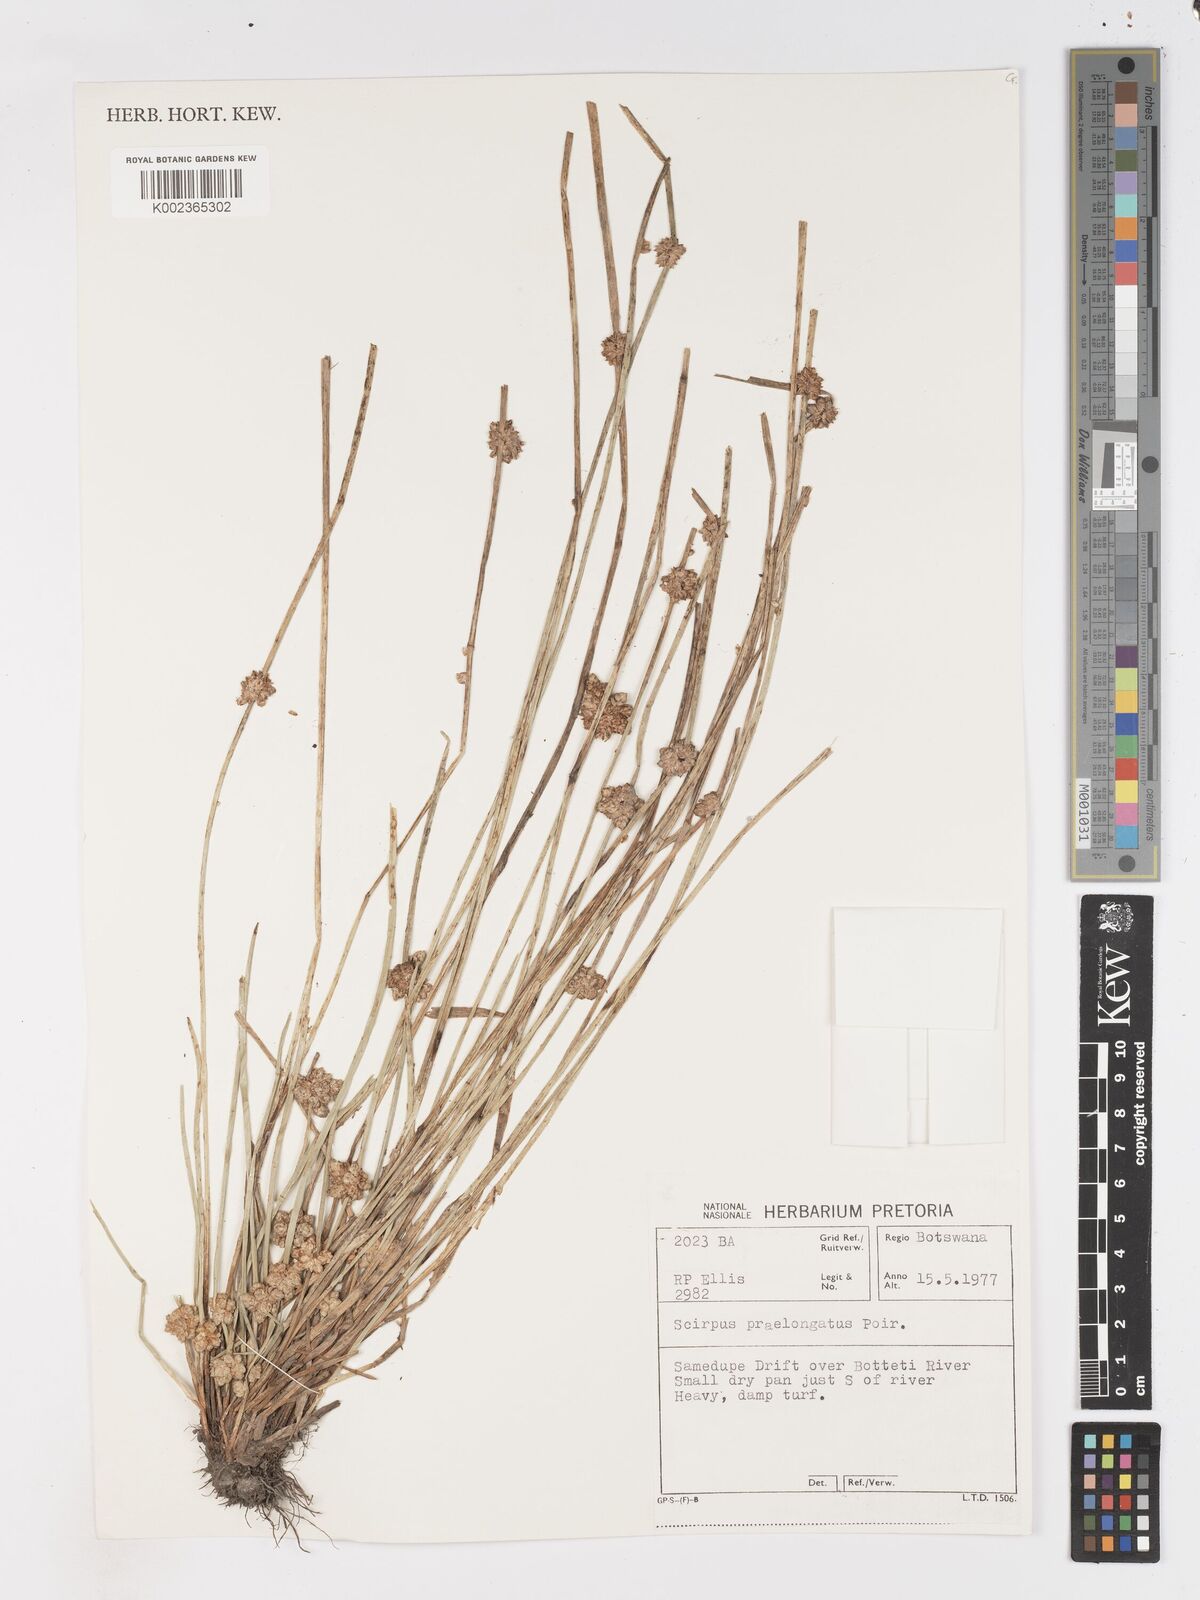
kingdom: Plantae
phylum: Tracheophyta
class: Liliopsida
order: Poales
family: Cyperaceae
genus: Schoenoplectiella
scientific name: Schoenoplectiella senegalensis
